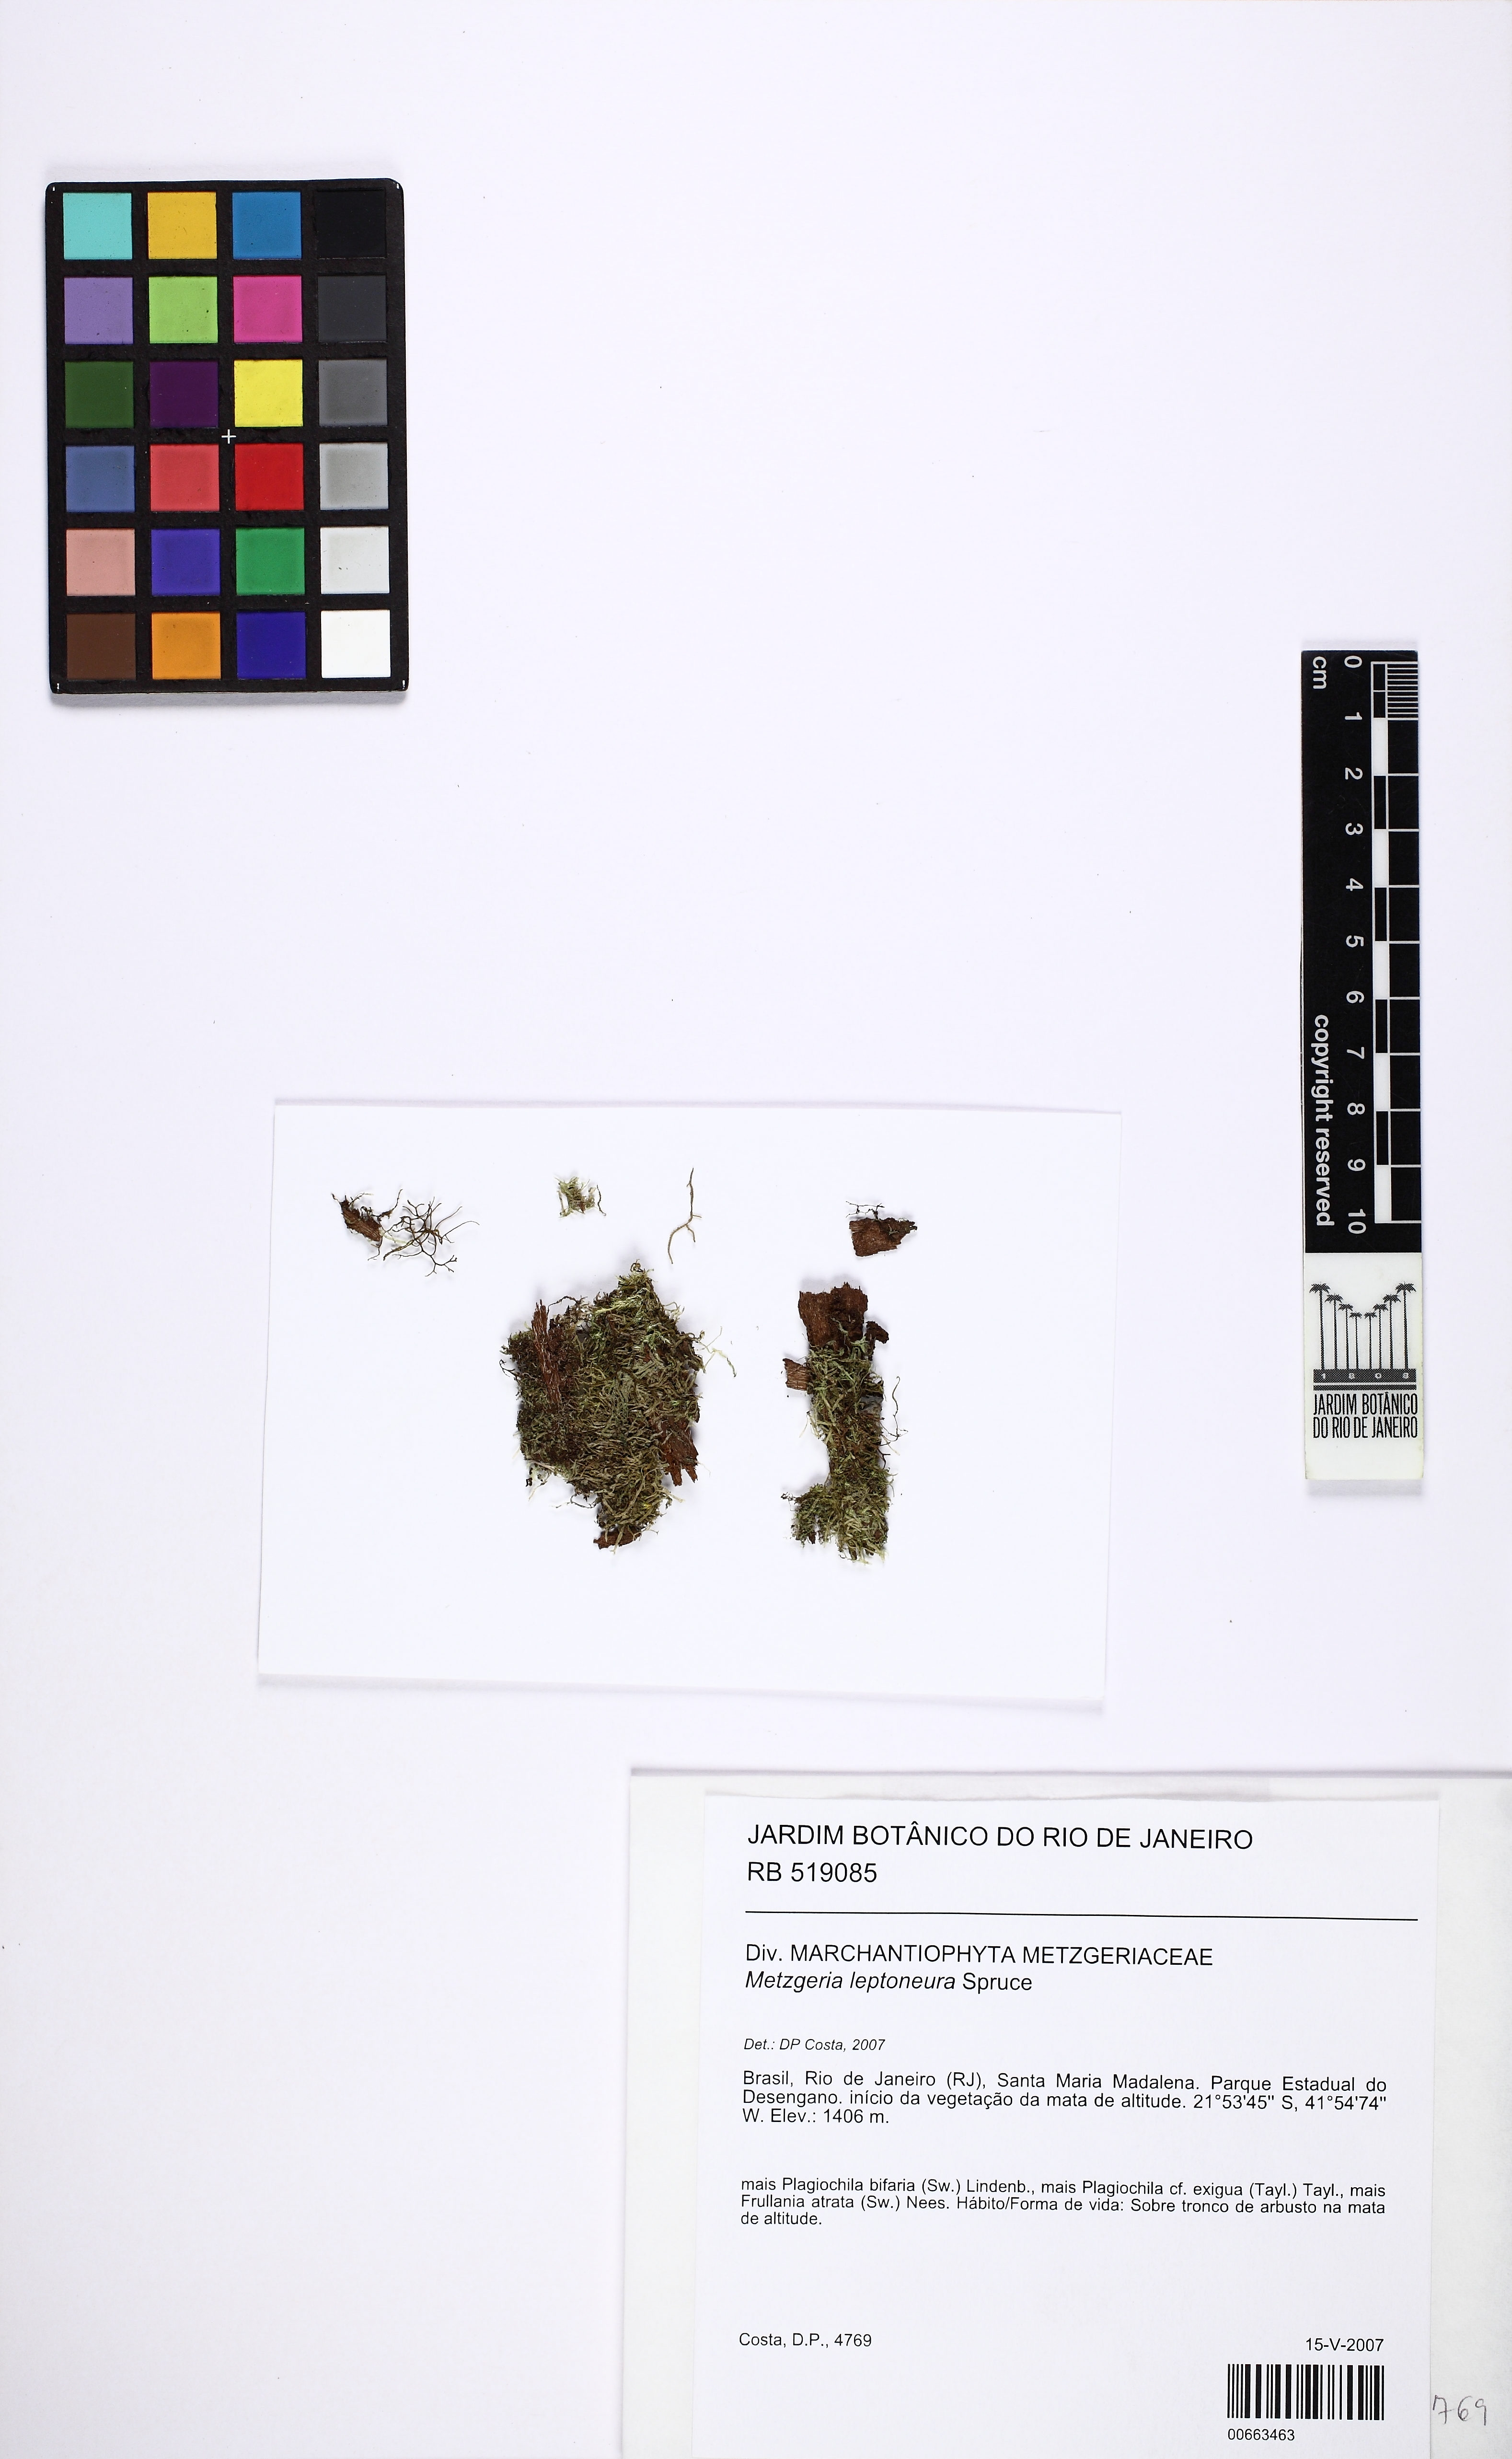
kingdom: Plantae
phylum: Marchantiophyta
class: Jungermanniopsida
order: Metzgeriales
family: Metzgeriaceae
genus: Metzgeria
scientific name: Metzgeria leptoneura
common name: Hooked veilwort
